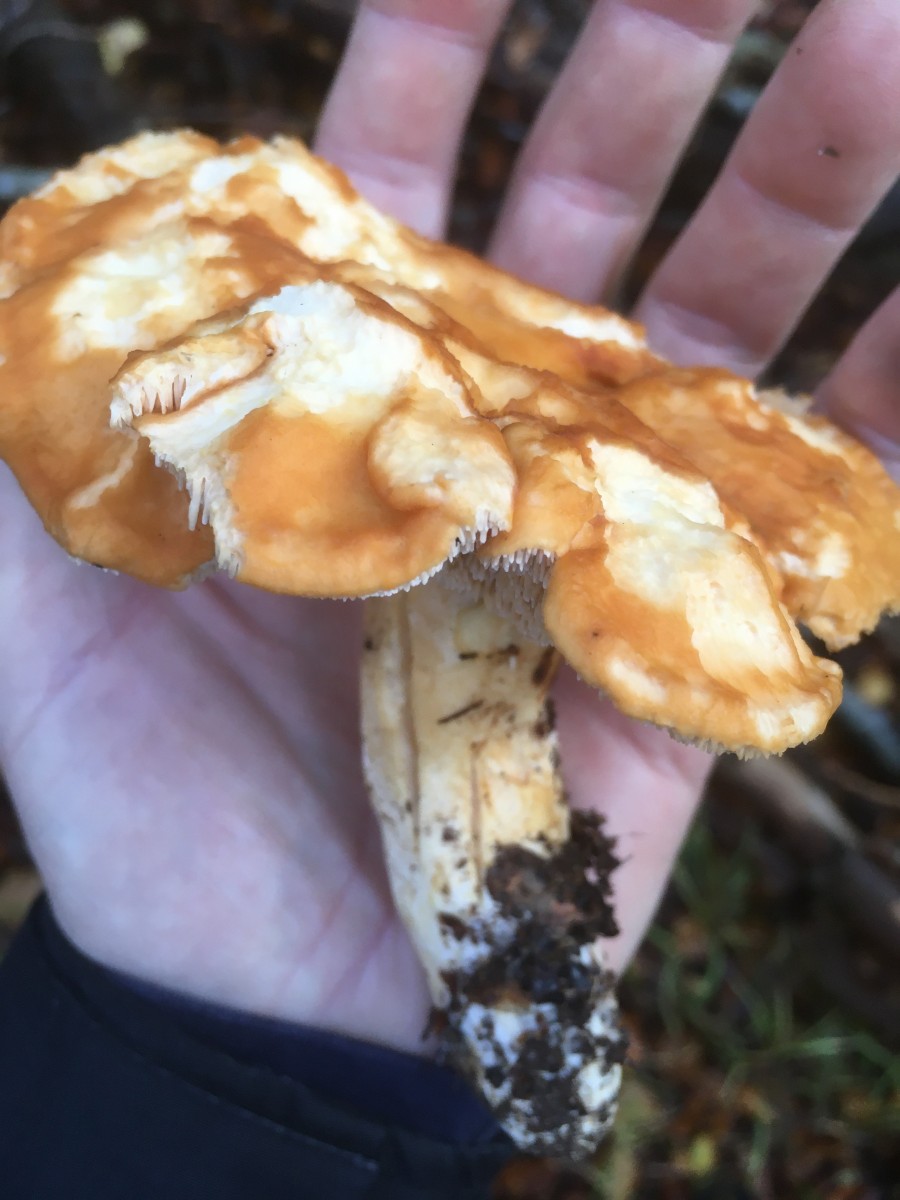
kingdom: Fungi
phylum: Basidiomycota
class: Agaricomycetes
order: Cantharellales
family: Hydnaceae
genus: Hydnum
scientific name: Hydnum
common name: pigsvamp
